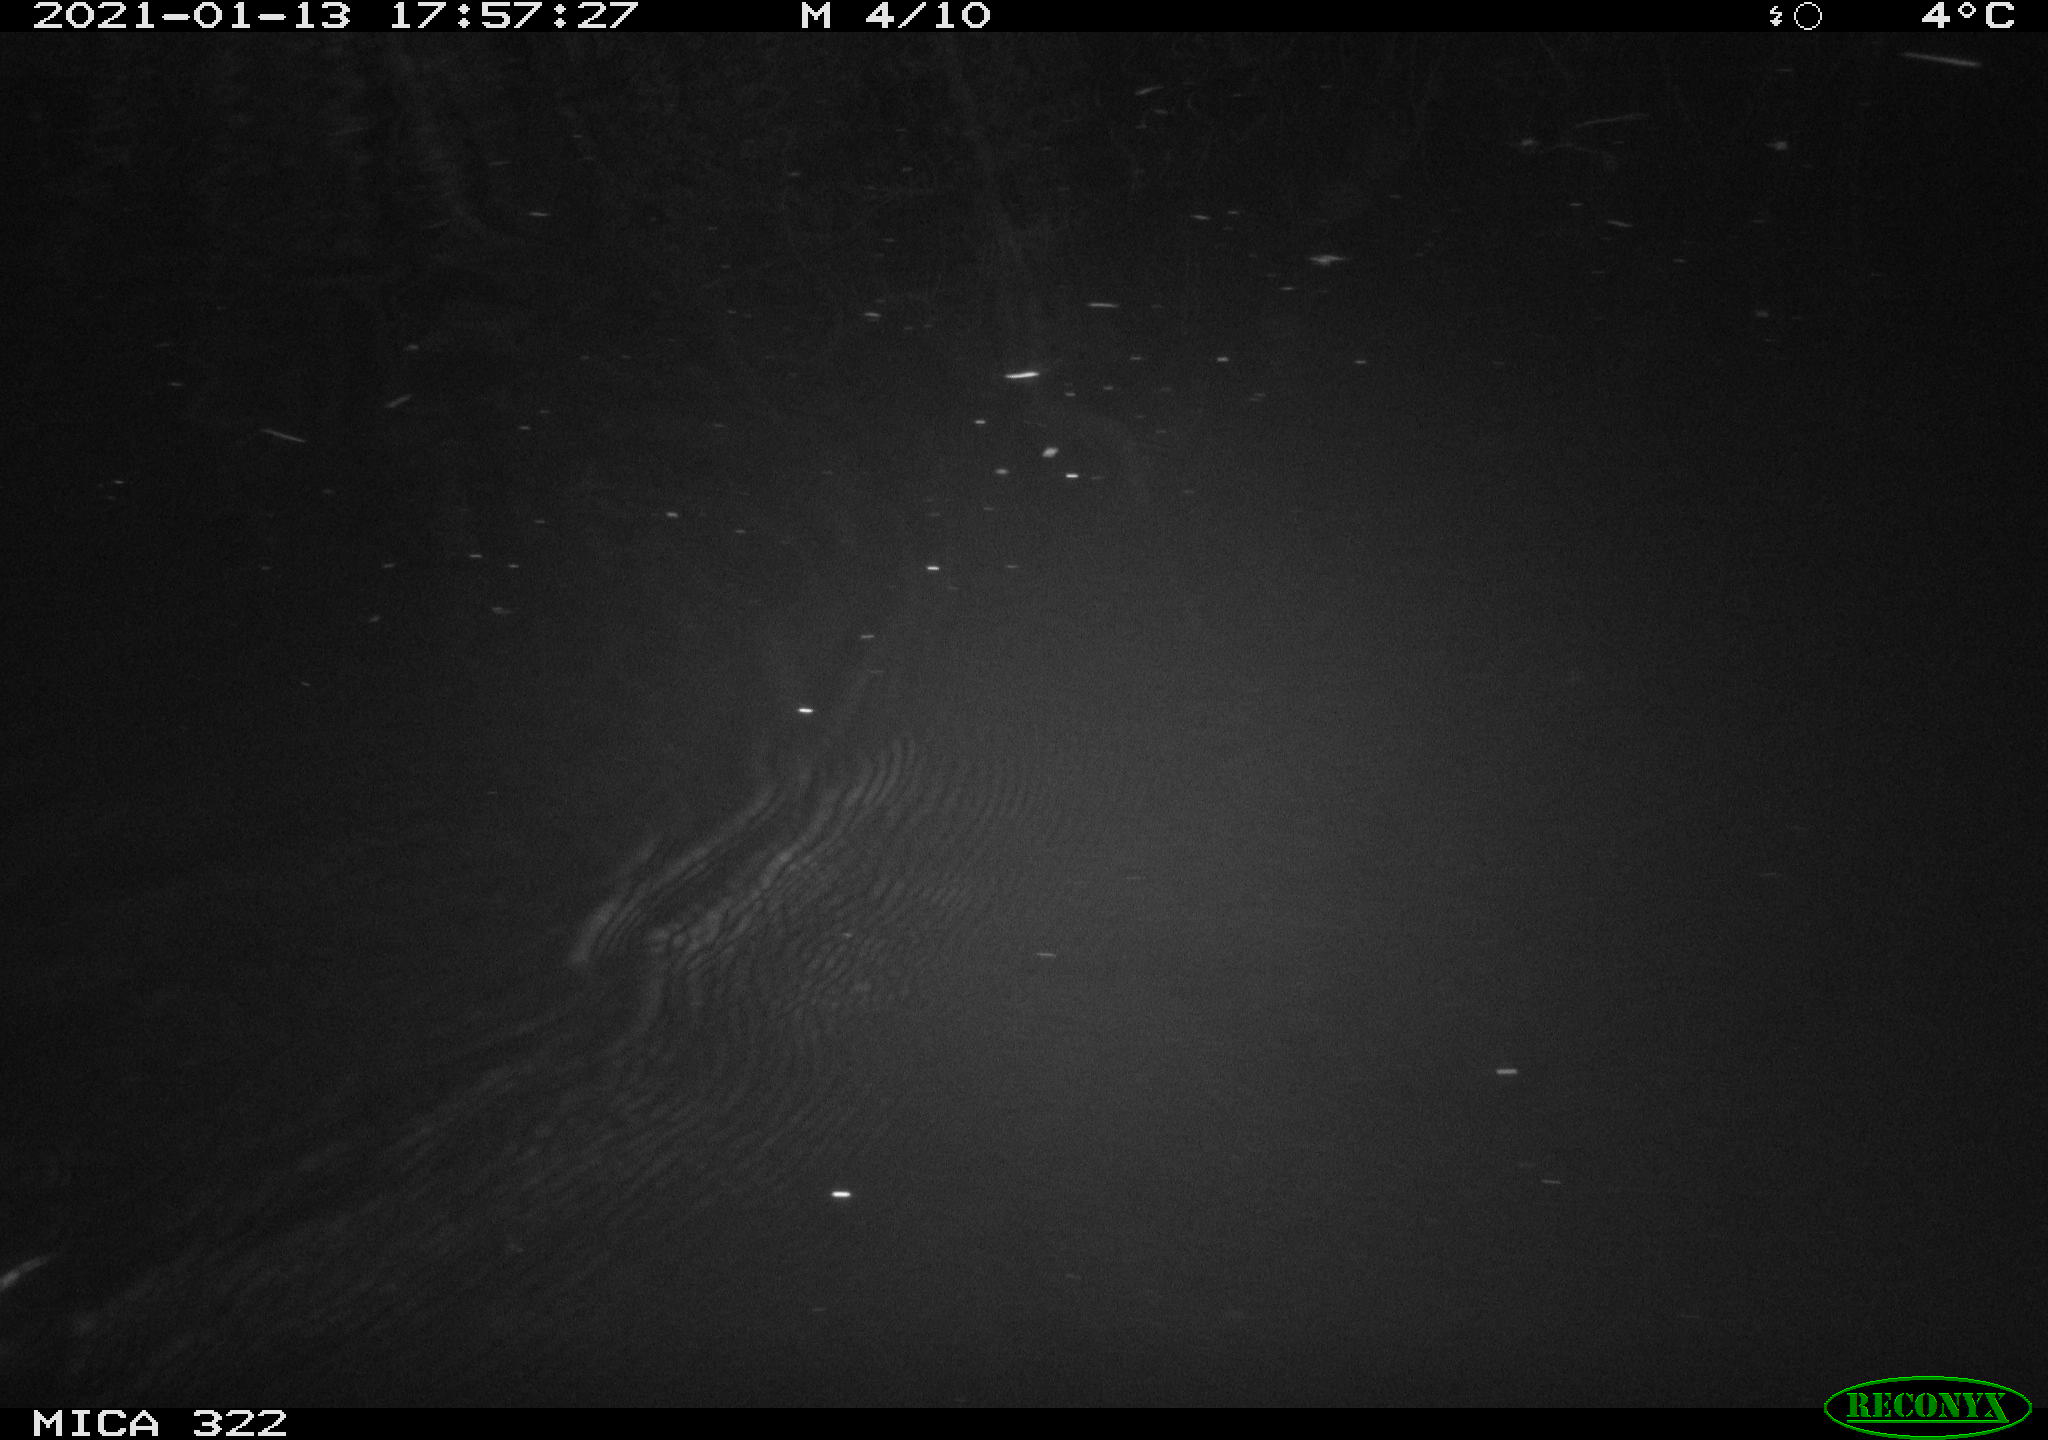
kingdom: Animalia
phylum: Chordata
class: Mammalia
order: Rodentia
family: Muridae
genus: Rattus
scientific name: Rattus norvegicus
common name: Brown rat
